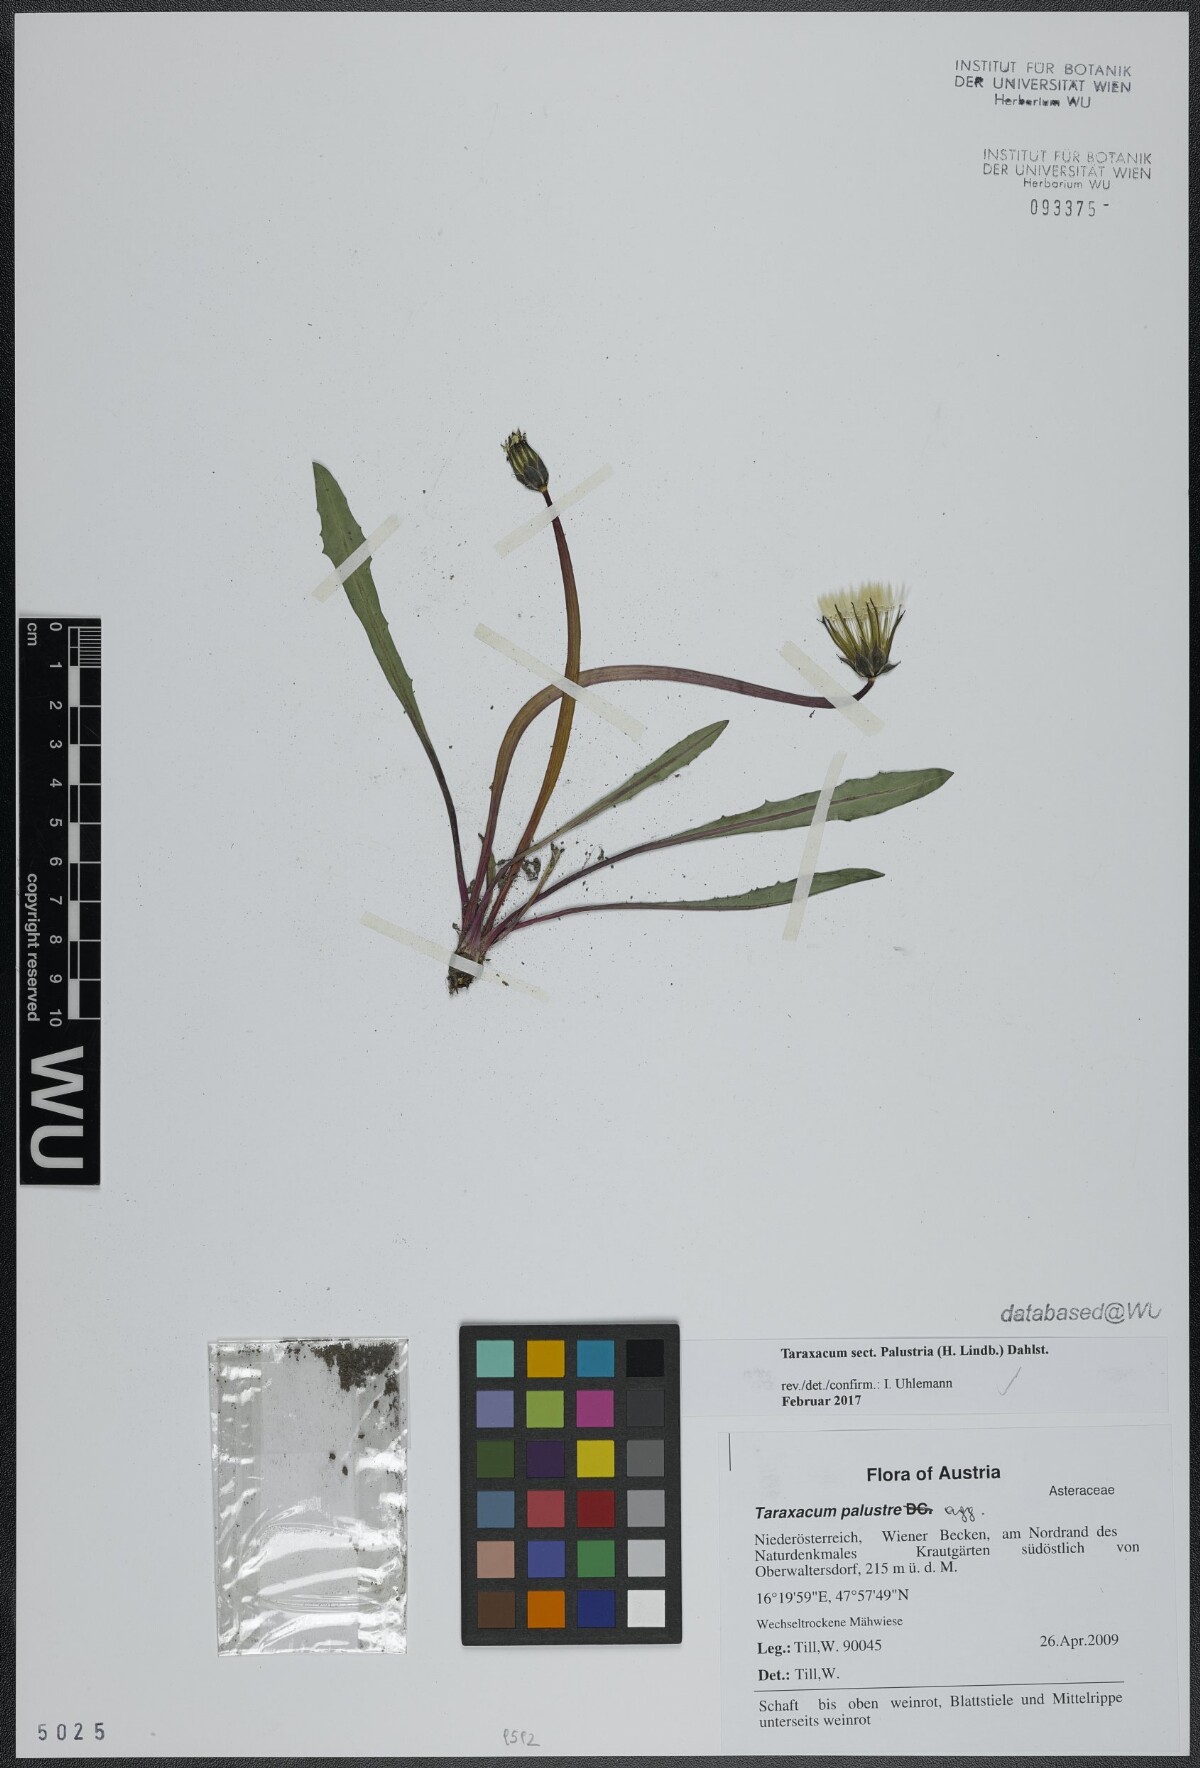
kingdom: Plantae
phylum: Tracheophyta
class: Magnoliopsida
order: Asterales
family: Asteraceae
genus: Taraxacum
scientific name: Taraxacum
